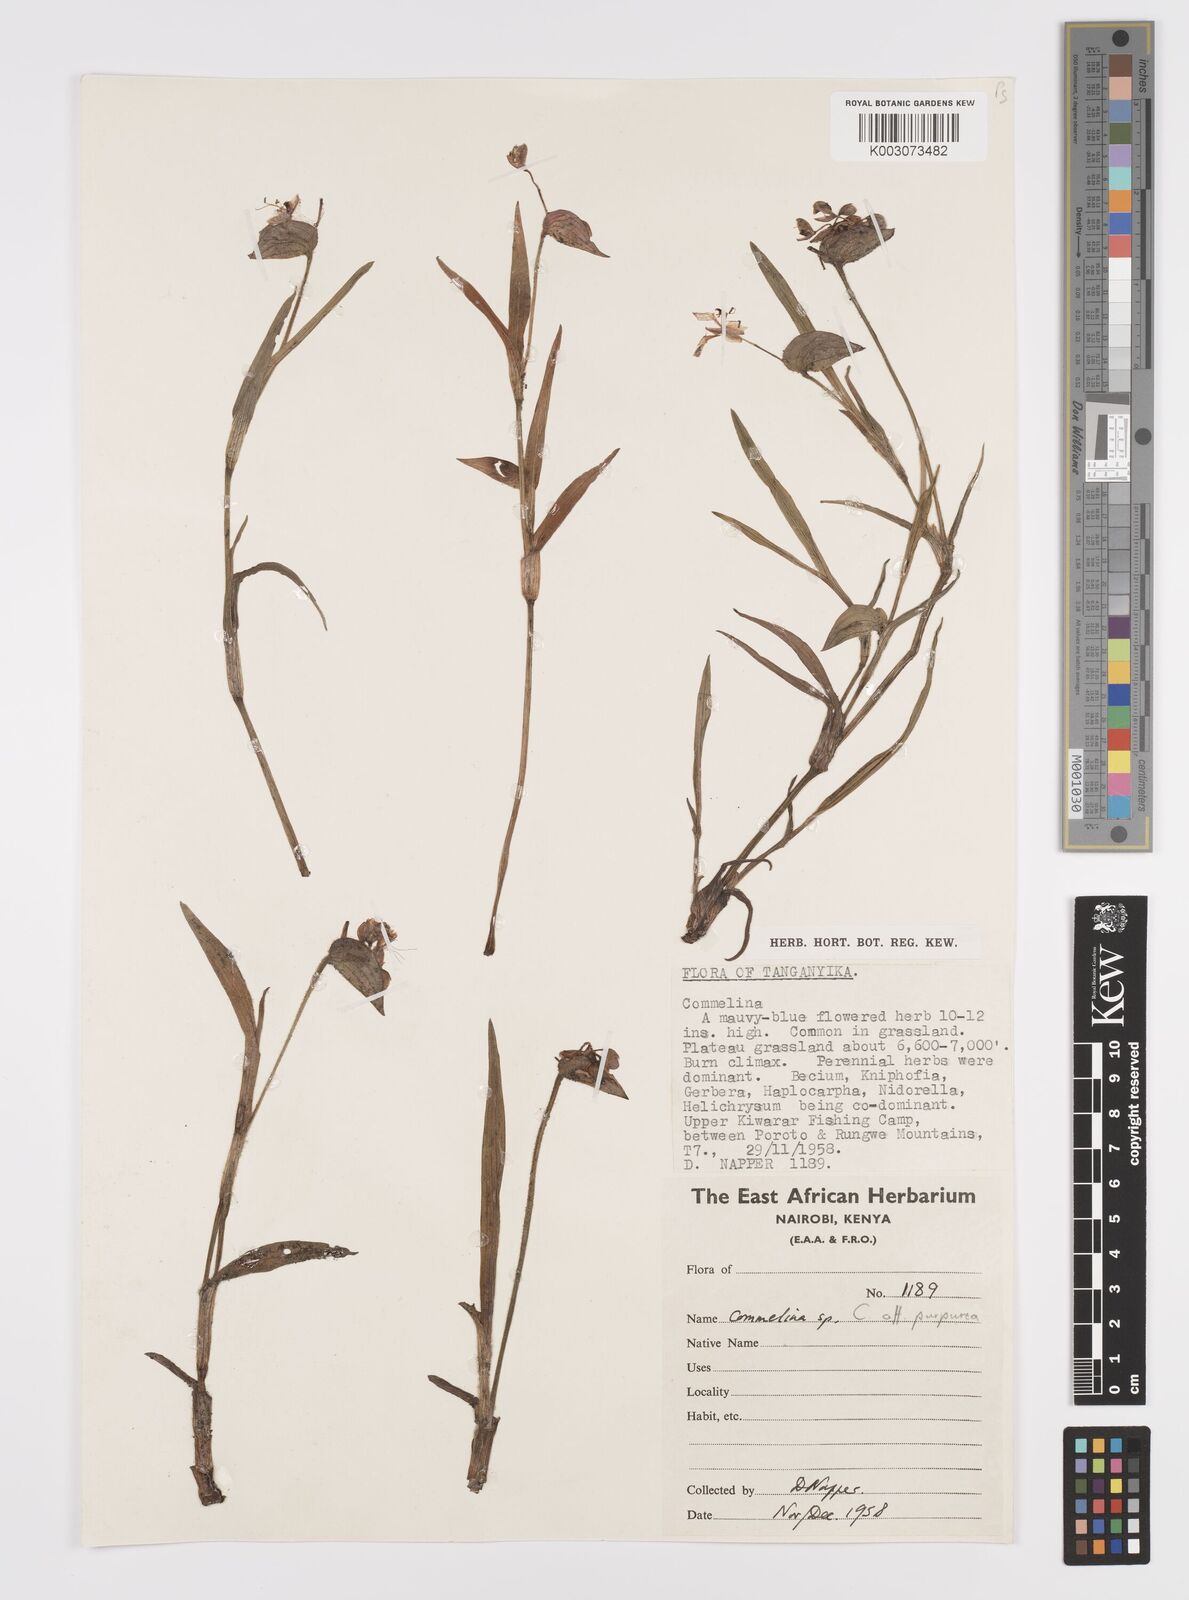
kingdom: Plantae
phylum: Tracheophyta
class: Liliopsida
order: Commelinales
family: Commelinaceae
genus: Commelina
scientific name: Commelina kituloensis
